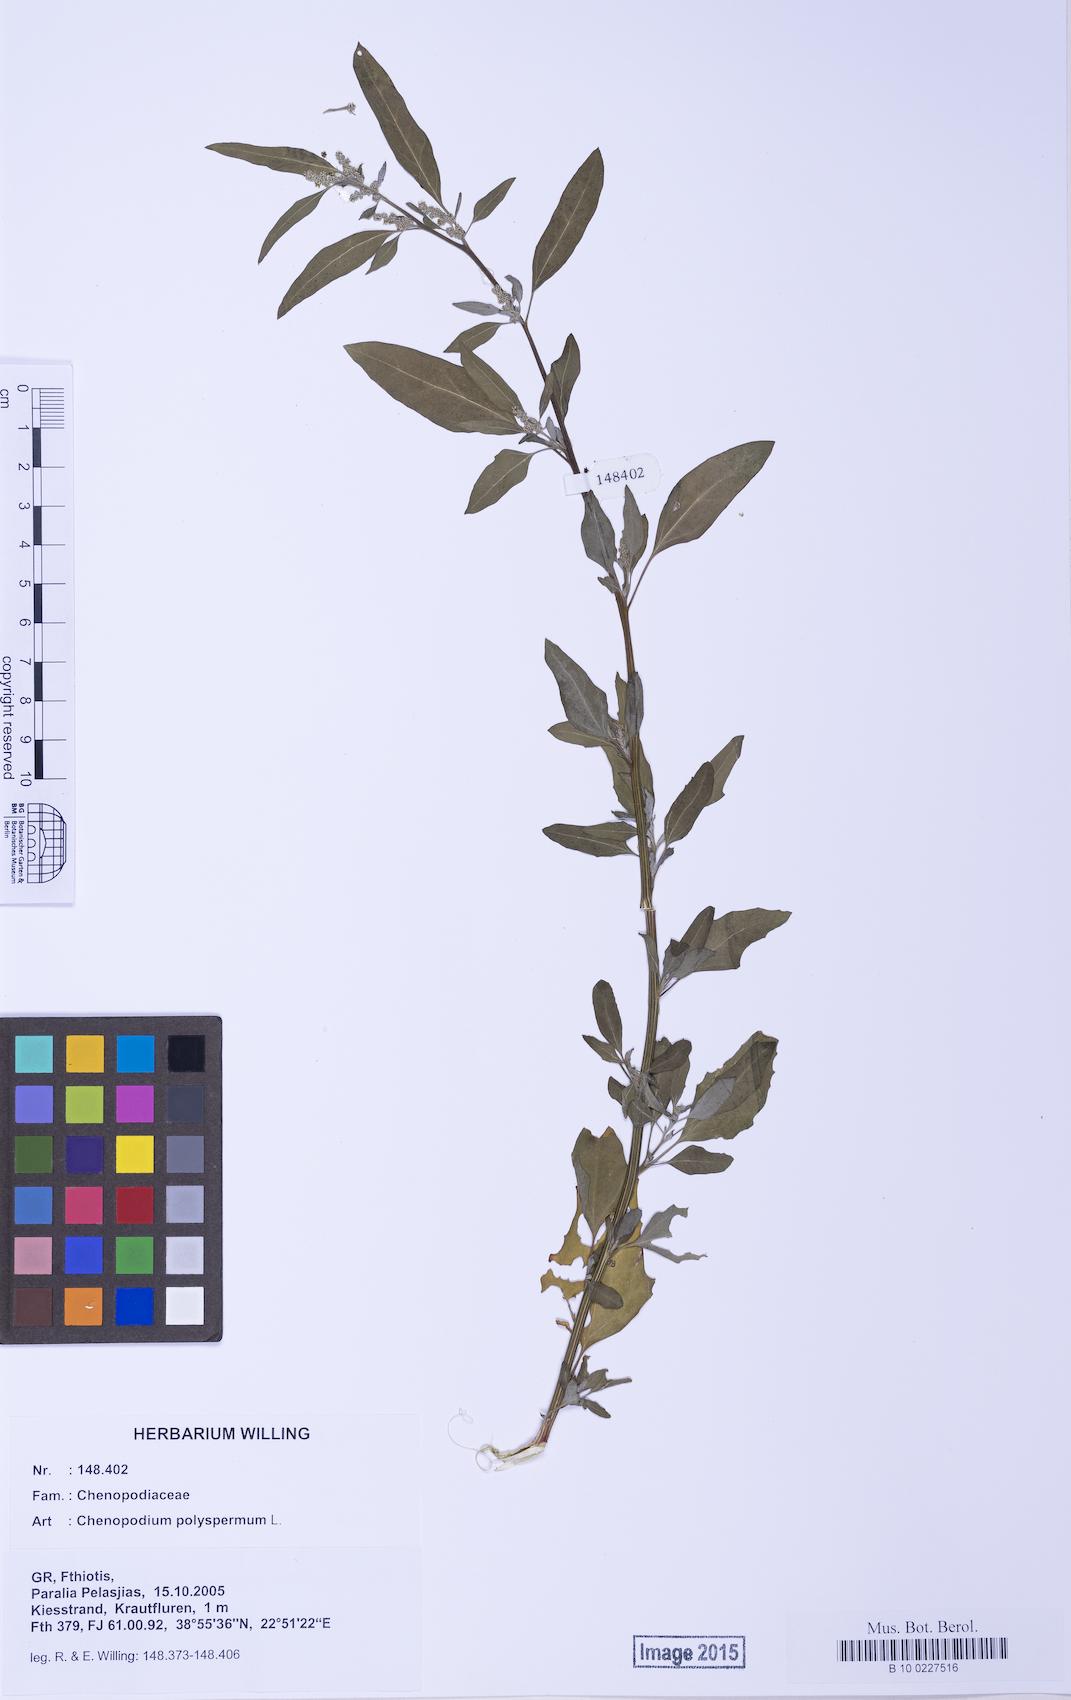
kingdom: Plantae
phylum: Tracheophyta
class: Magnoliopsida
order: Caryophyllales
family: Amaranthaceae
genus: Chenopodium
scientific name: Chenopodium album
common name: Fat-hen
